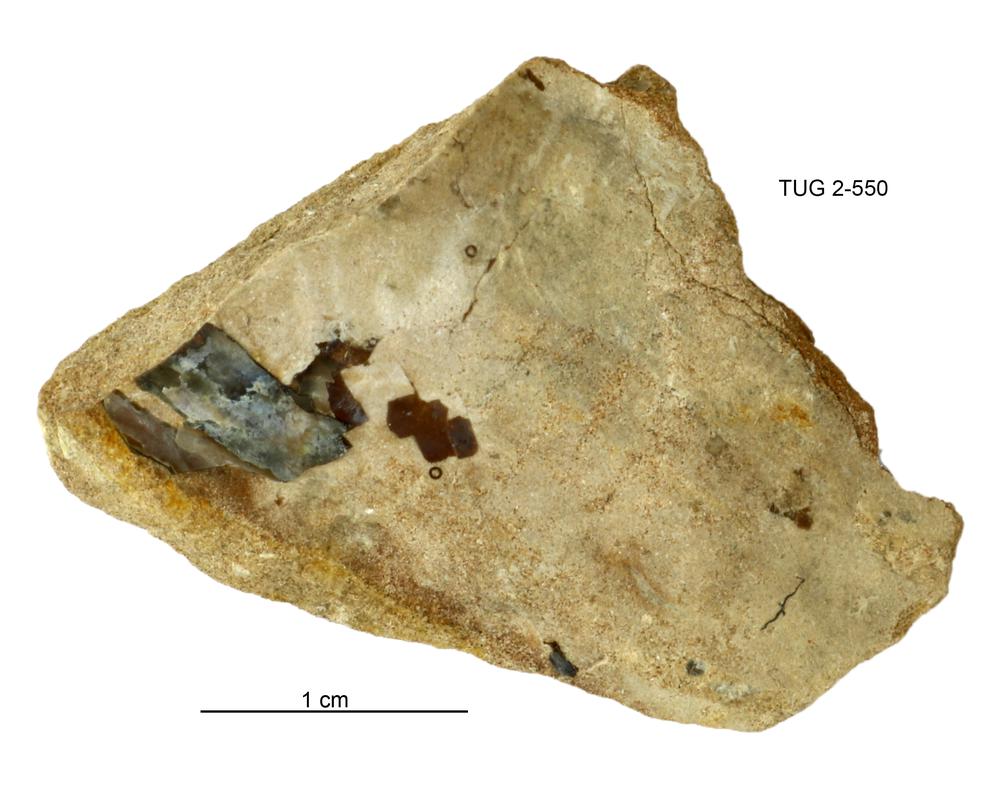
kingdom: Animalia
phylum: Cnidaria
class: Scyphozoa
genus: Sphenothallus
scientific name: Sphenothallus
